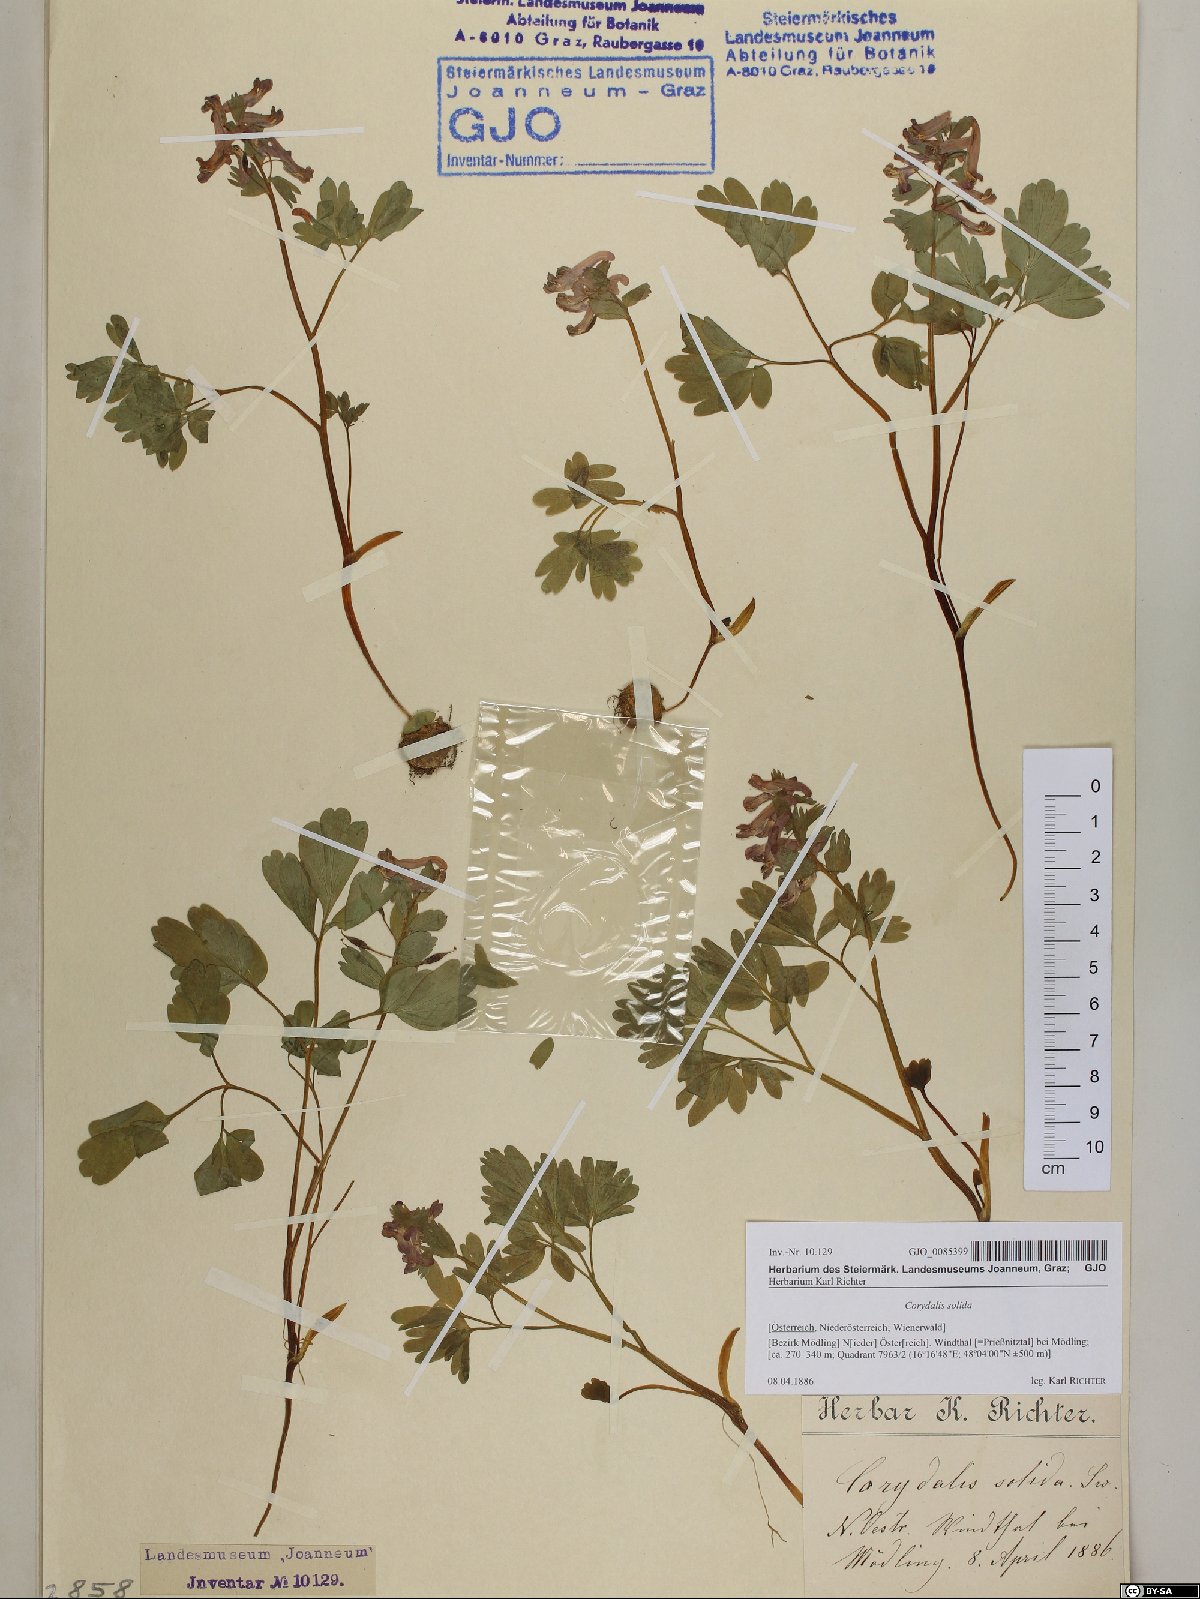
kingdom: Plantae
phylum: Tracheophyta
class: Magnoliopsida
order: Ranunculales
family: Papaveraceae
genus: Corydalis
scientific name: Corydalis solida
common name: Bird-in-a-bush
